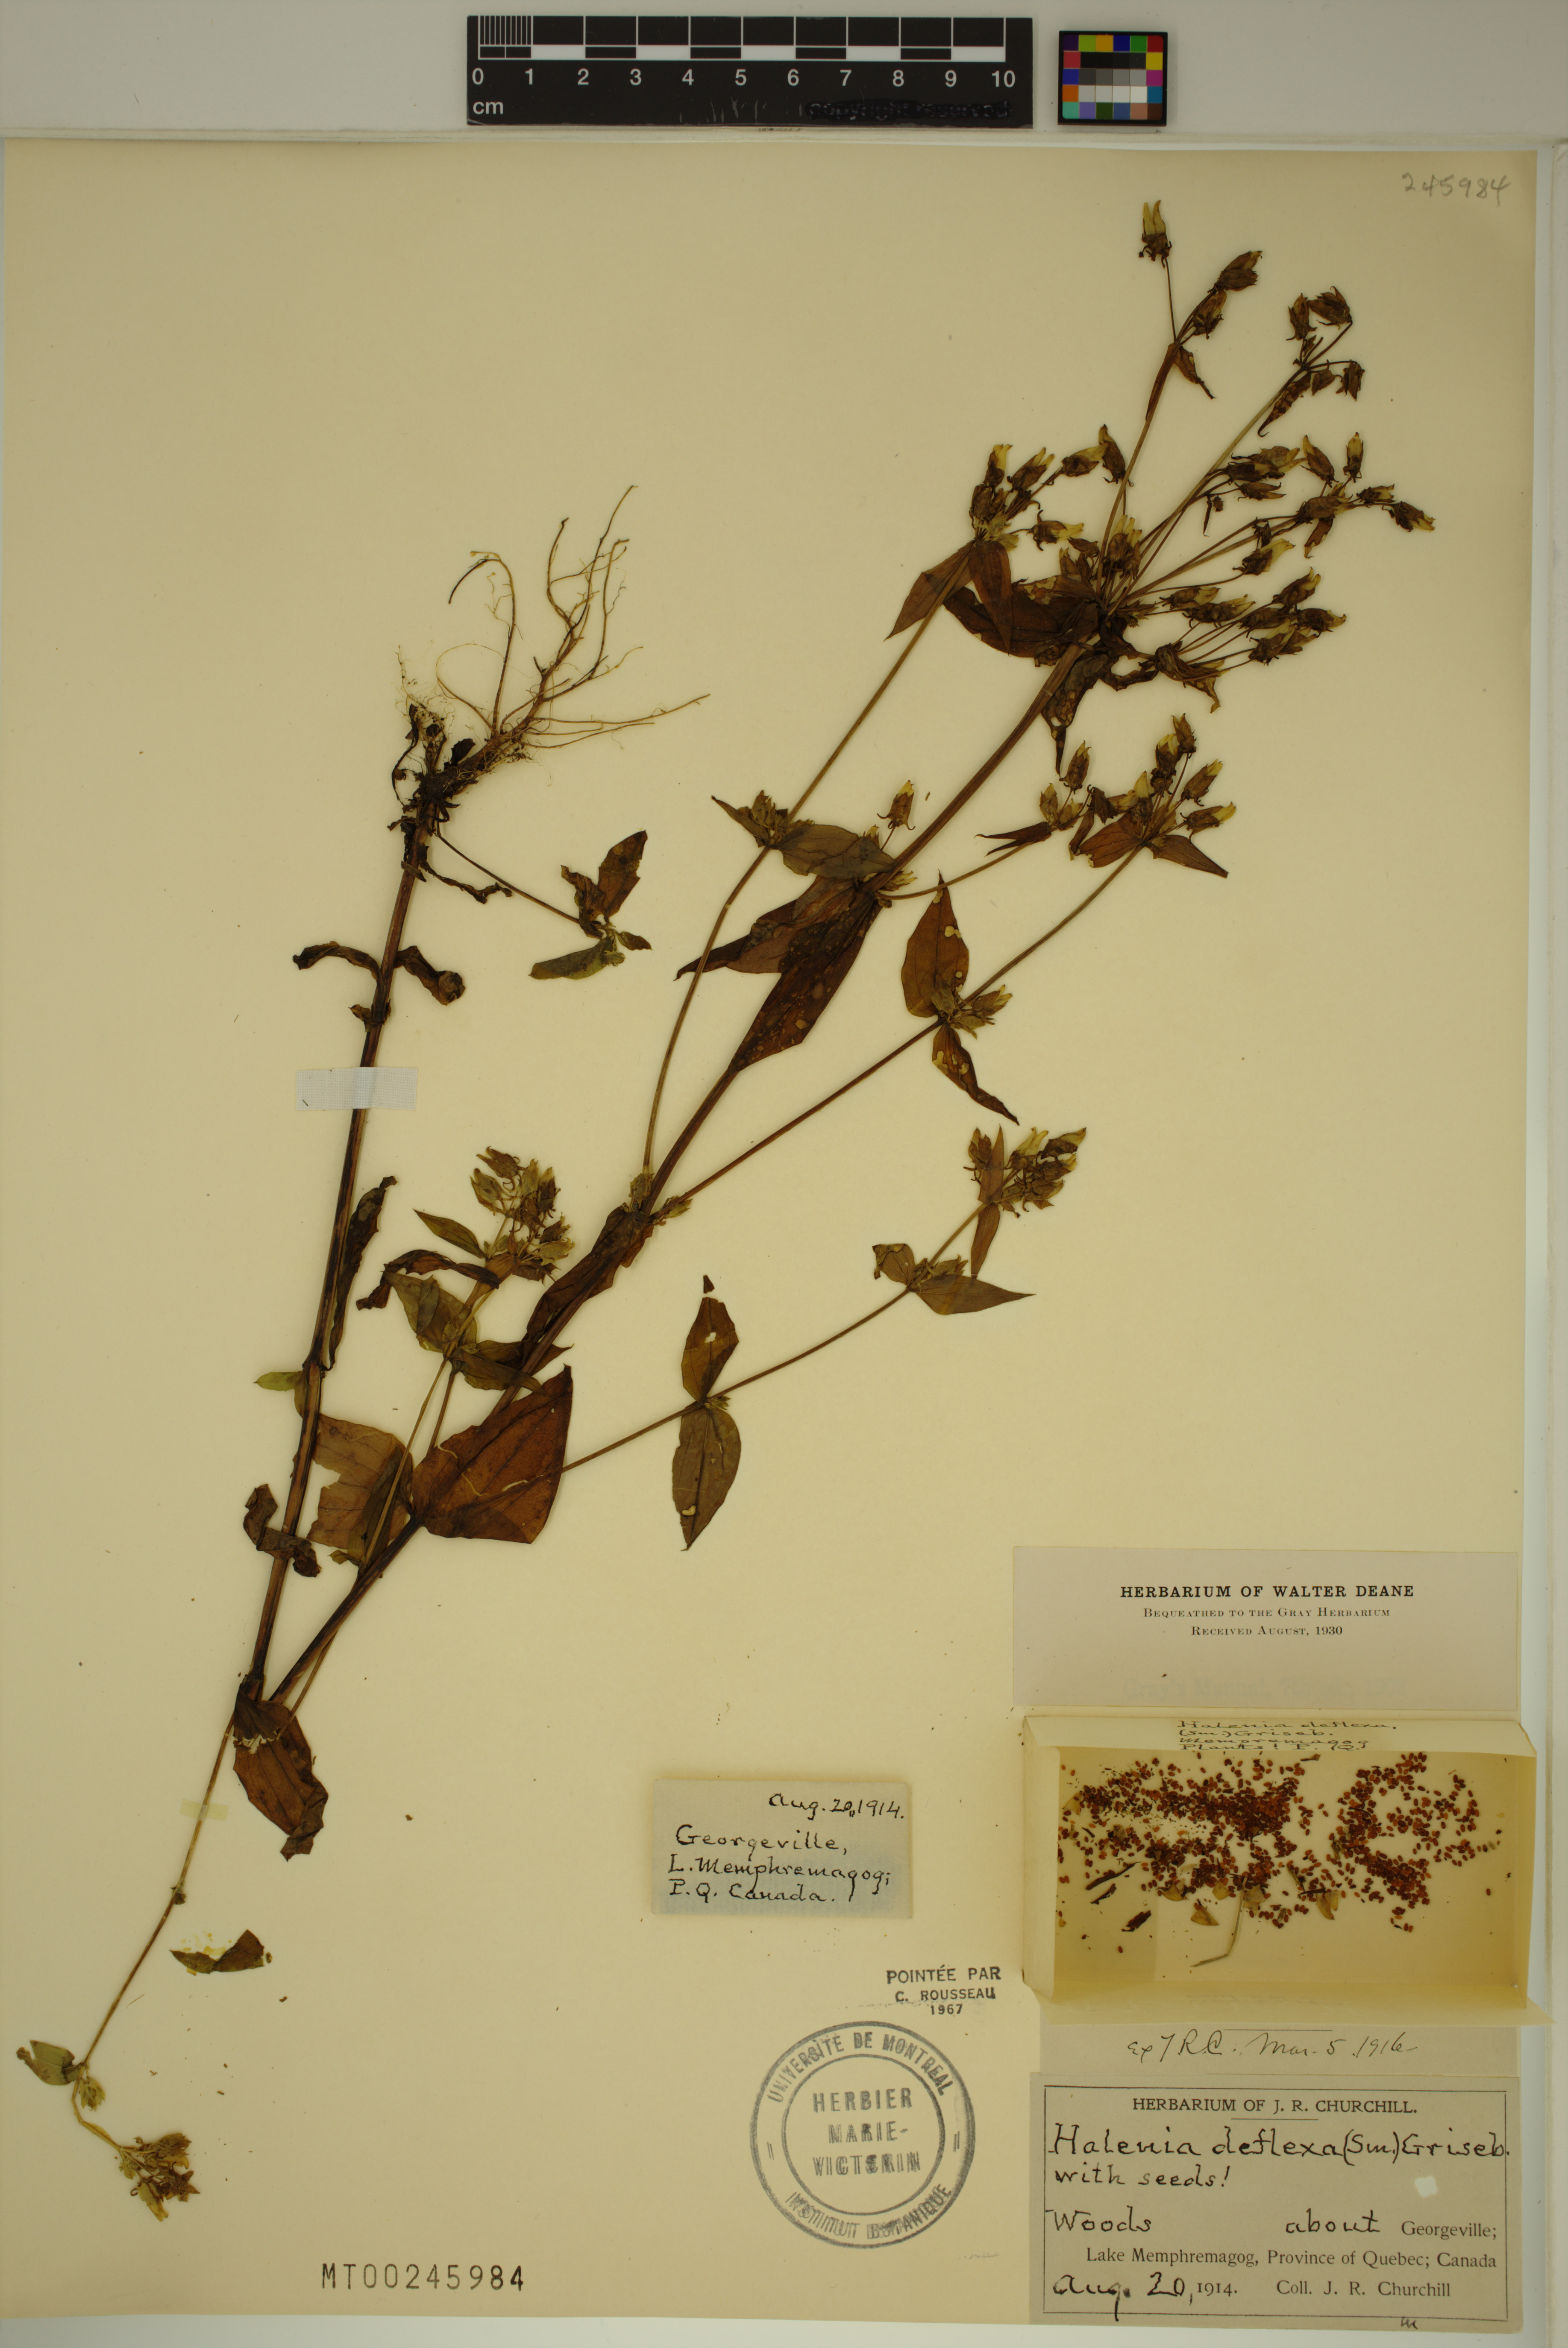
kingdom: Plantae
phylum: Tracheophyta
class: Magnoliopsida
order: Gentianales
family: Gentianaceae
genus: Halenia
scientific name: Halenia deflexa
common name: American spurred gentian
